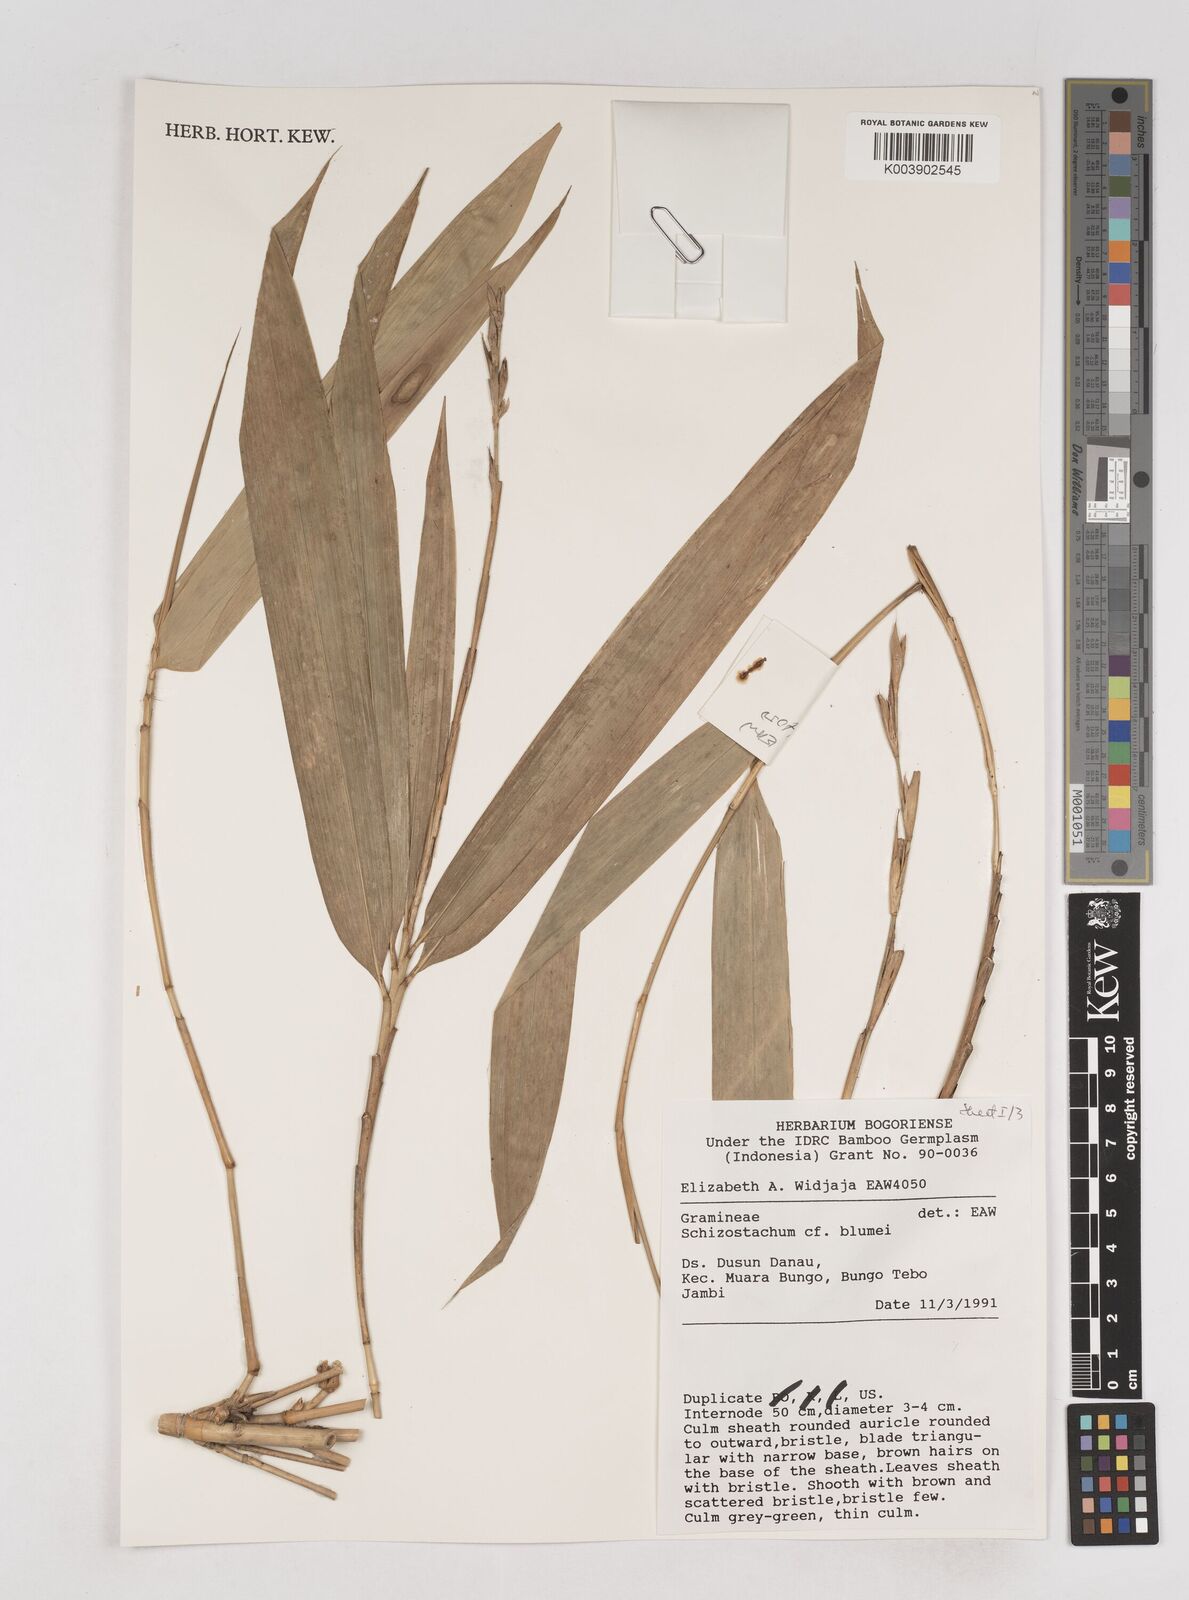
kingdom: Plantae
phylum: Tracheophyta
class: Liliopsida
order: Poales
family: Poaceae
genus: Schizostachyum
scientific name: Schizostachyum blumei
